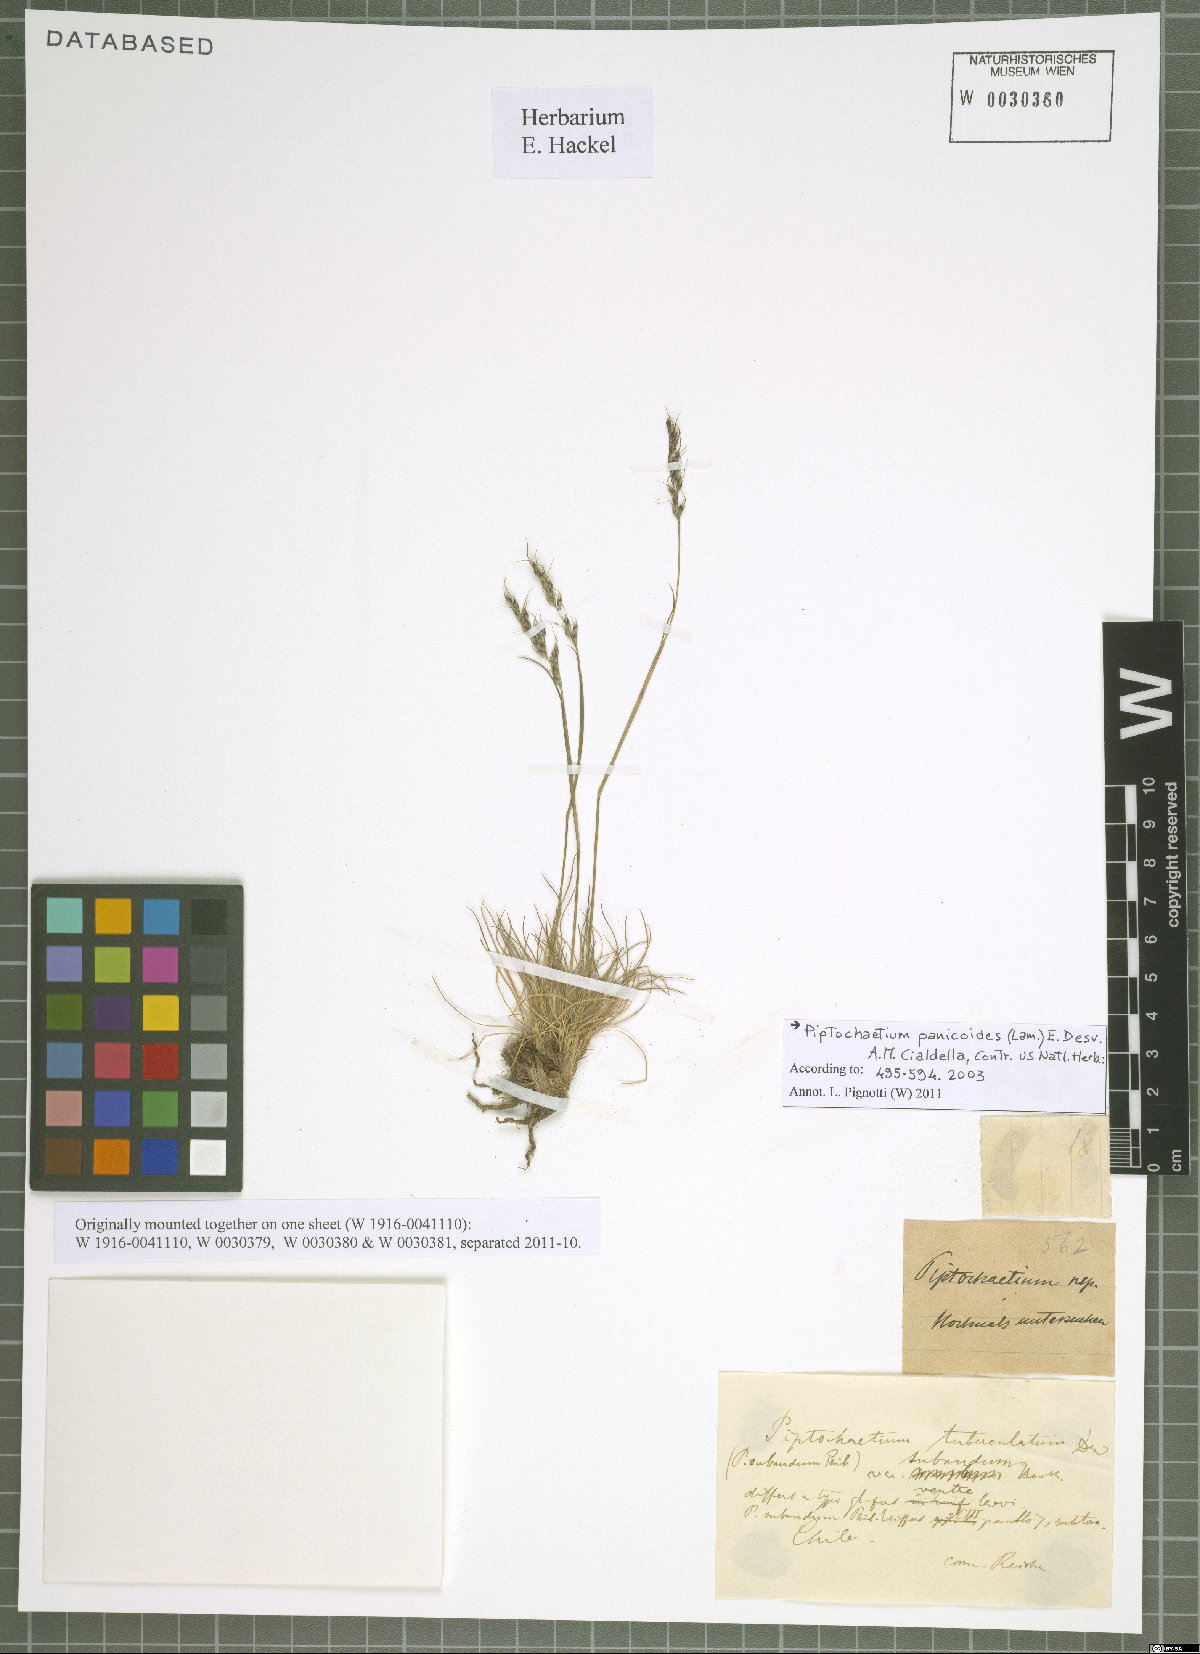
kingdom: Plantae
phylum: Tracheophyta
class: Liliopsida
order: Poales
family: Poaceae
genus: Piptochaetium
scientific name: Piptochaetium panicoides
